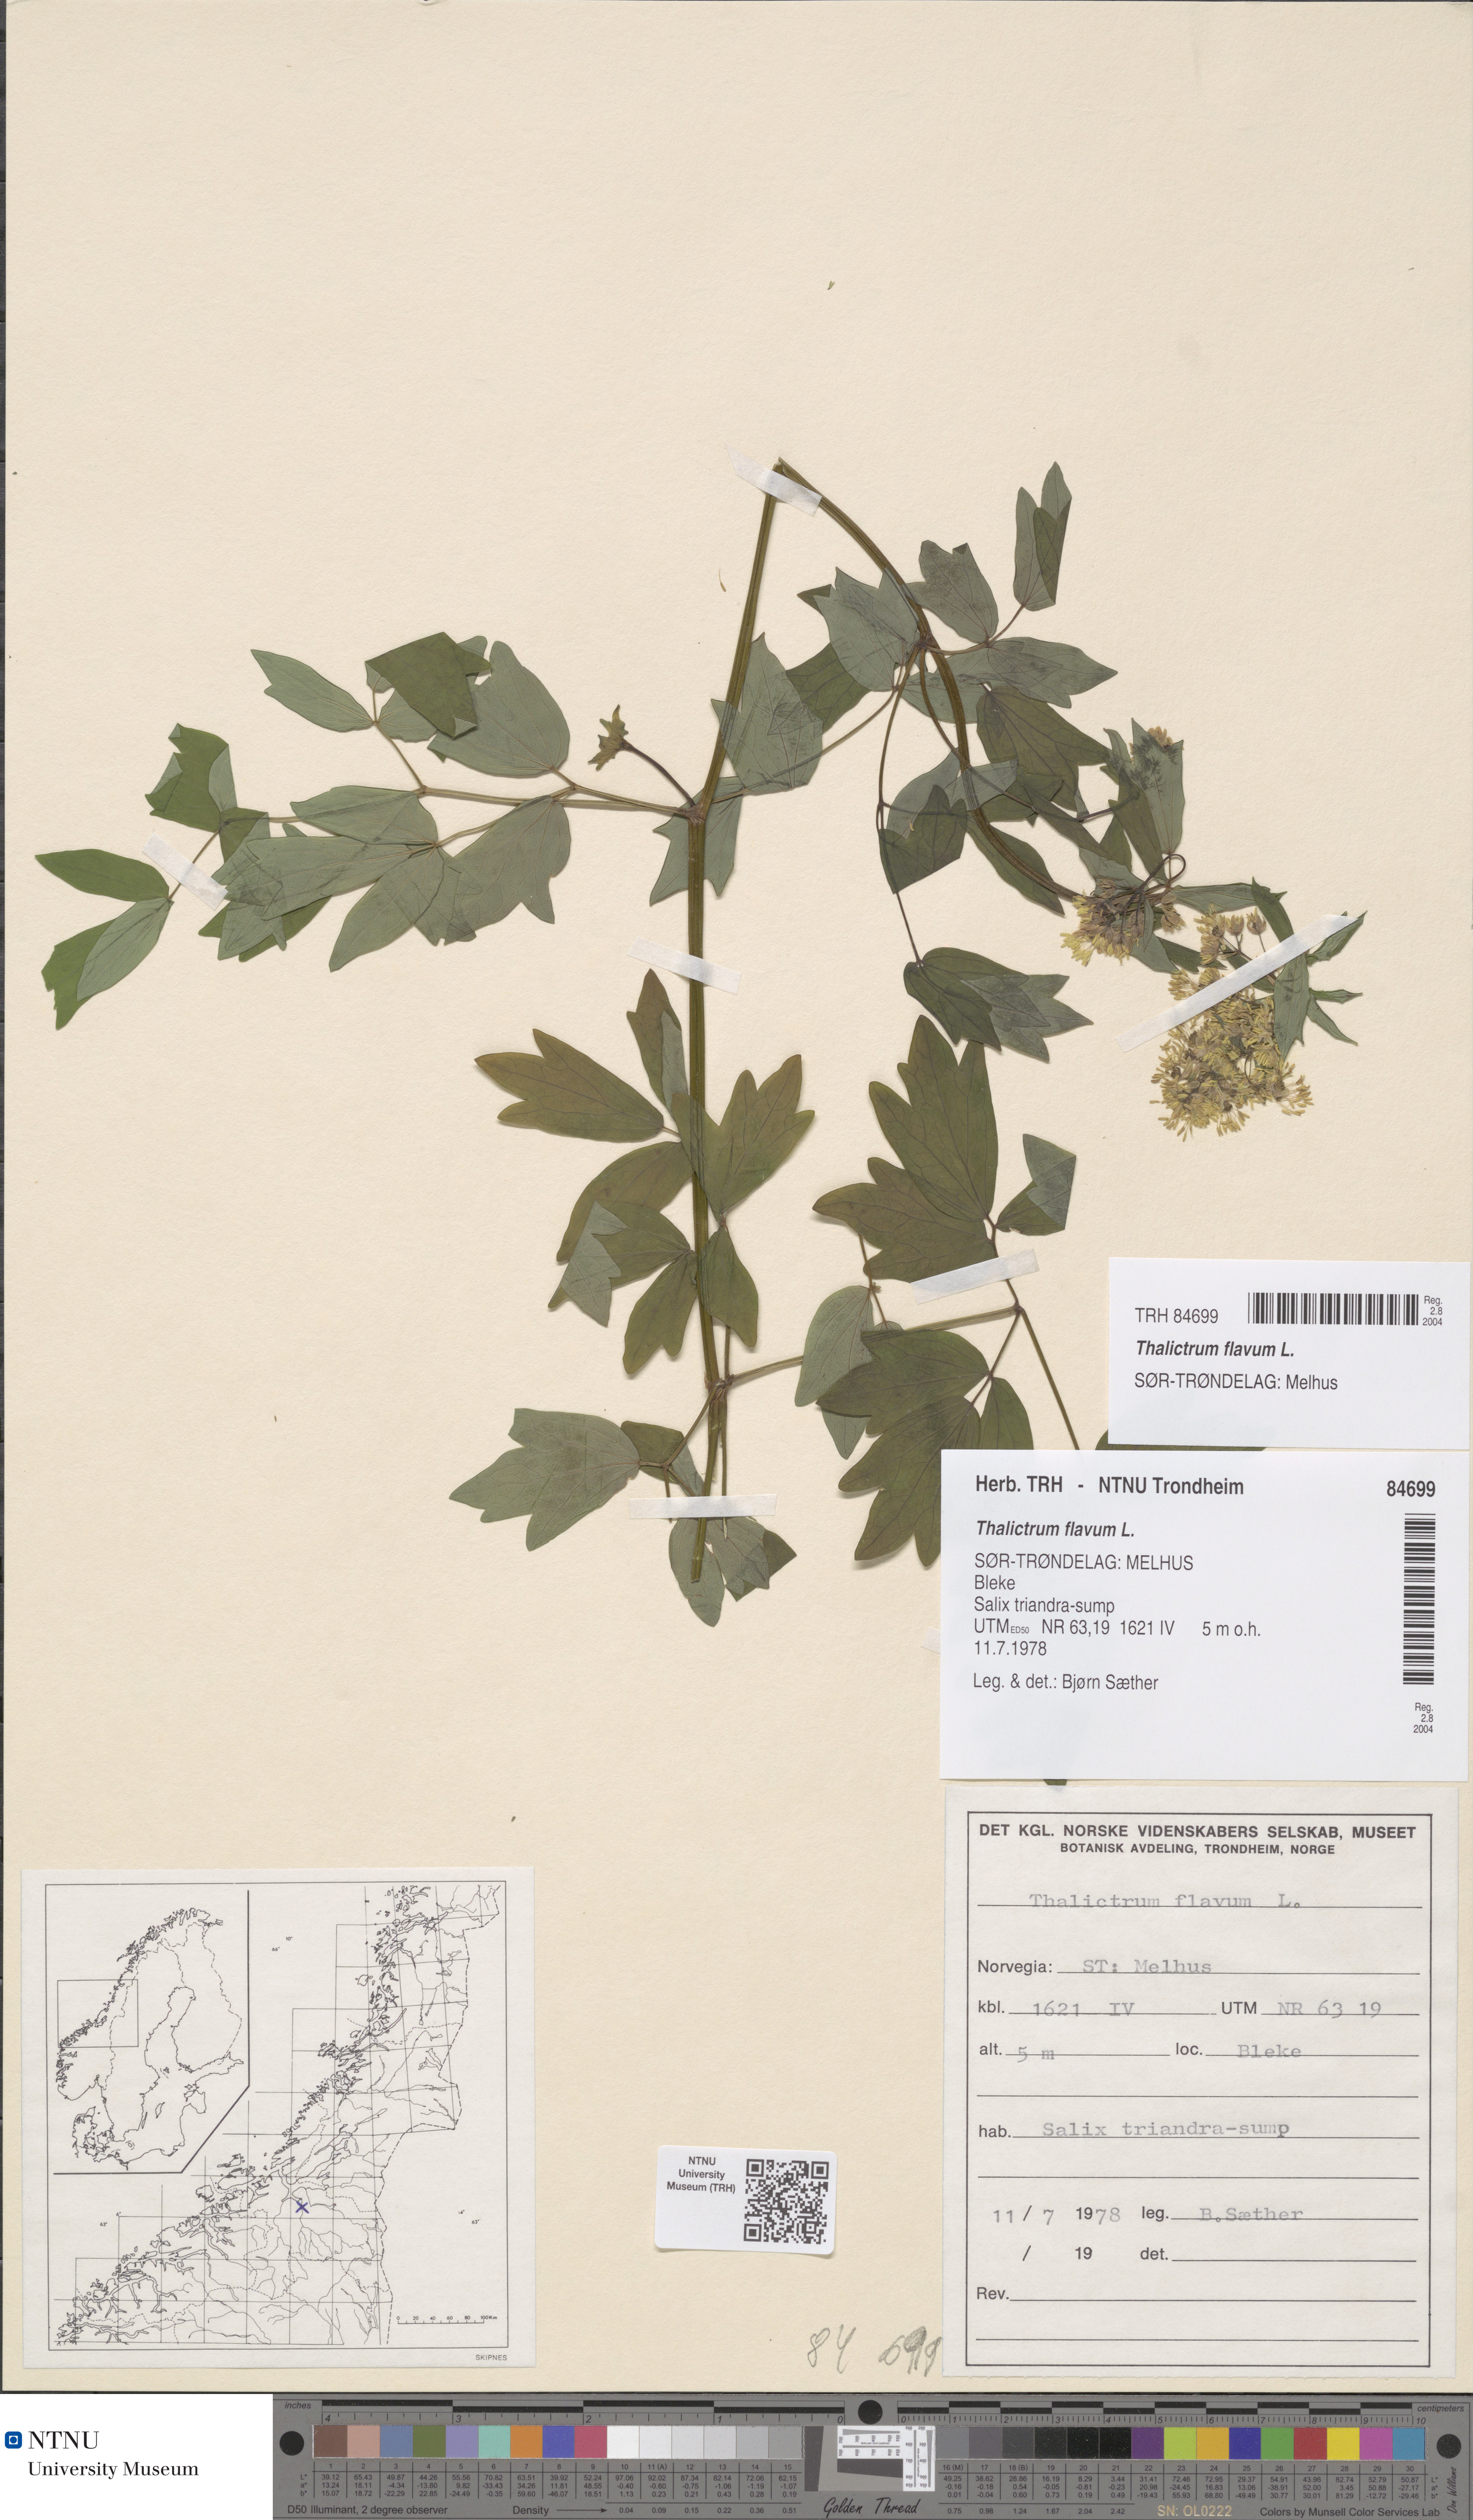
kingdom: Plantae
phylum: Tracheophyta
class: Magnoliopsida
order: Ranunculales
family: Ranunculaceae
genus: Thalictrum
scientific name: Thalictrum flavum
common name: Common meadow-rue
